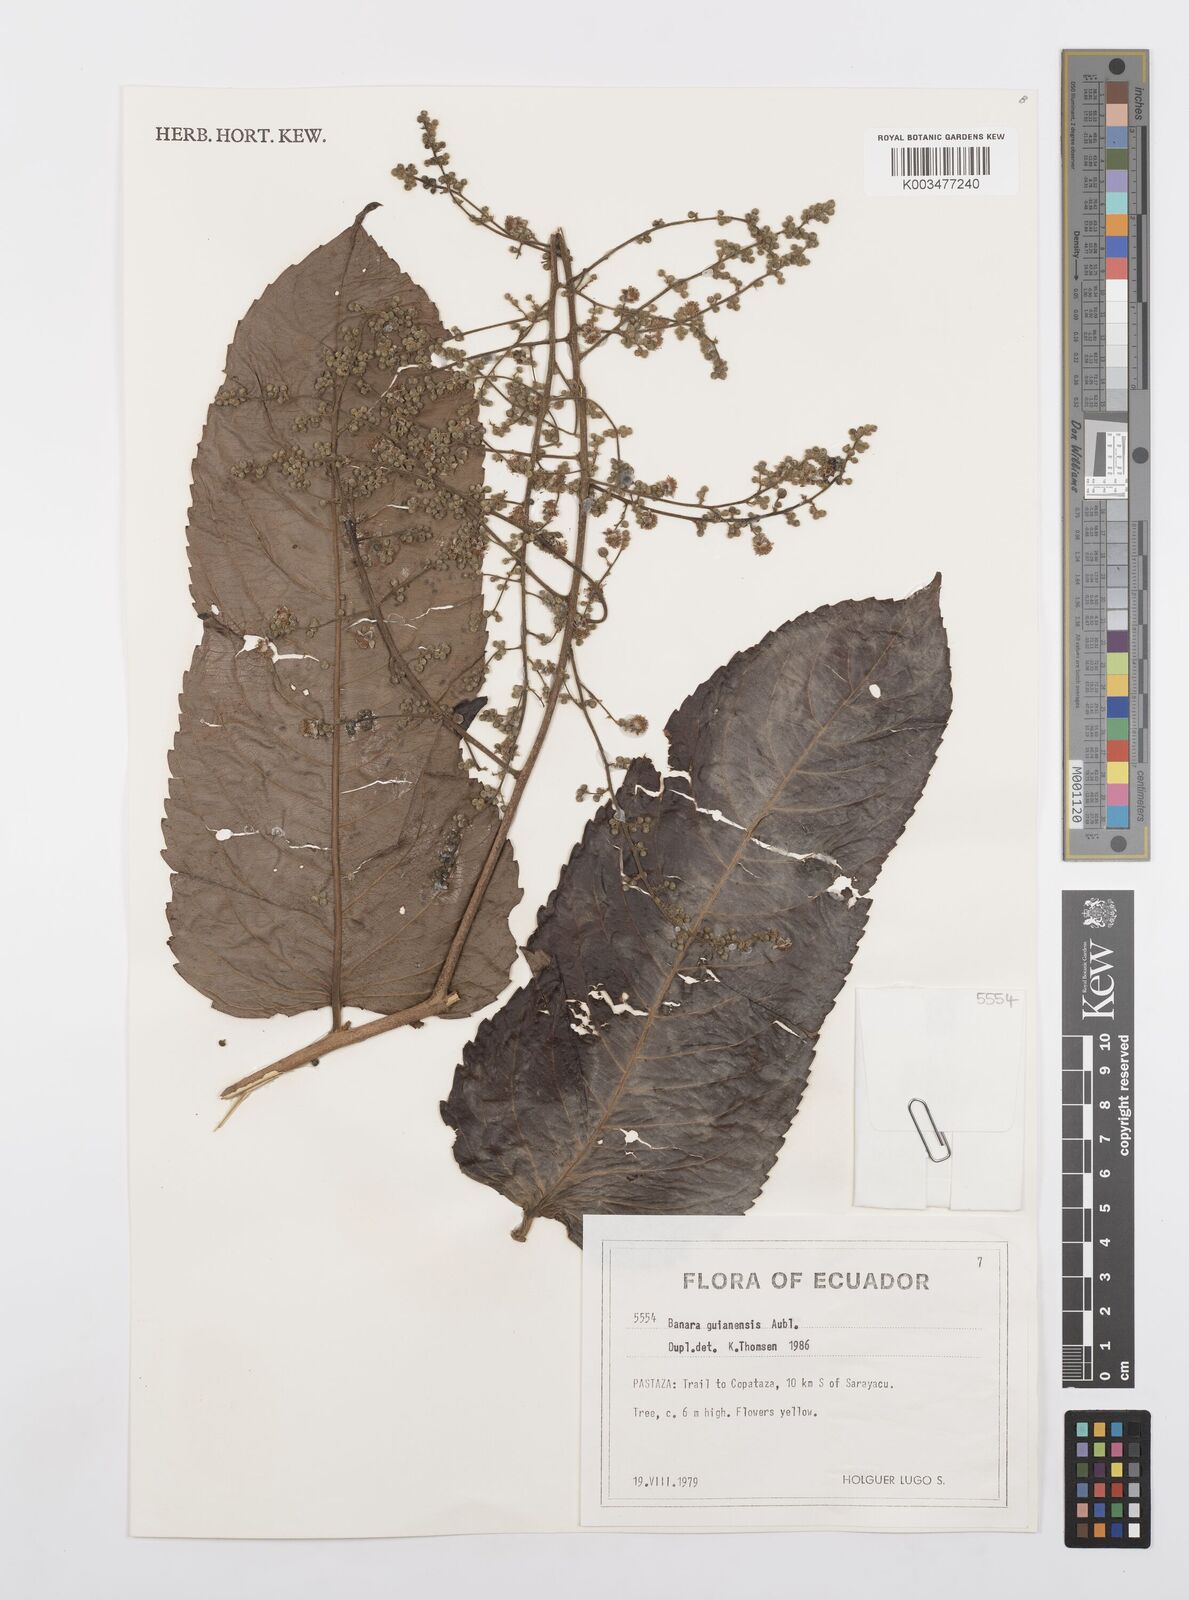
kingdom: Plantae
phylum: Tracheophyta
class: Magnoliopsida
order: Malpighiales
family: Salicaceae
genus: Banara
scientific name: Banara guianensis
